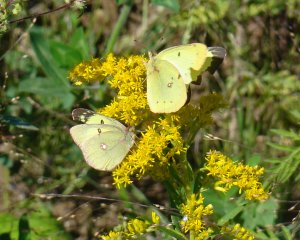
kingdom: Animalia
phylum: Arthropoda
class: Insecta
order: Lepidoptera
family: Pieridae
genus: Colias
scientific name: Colias philodice
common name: Clouded Sulphur
